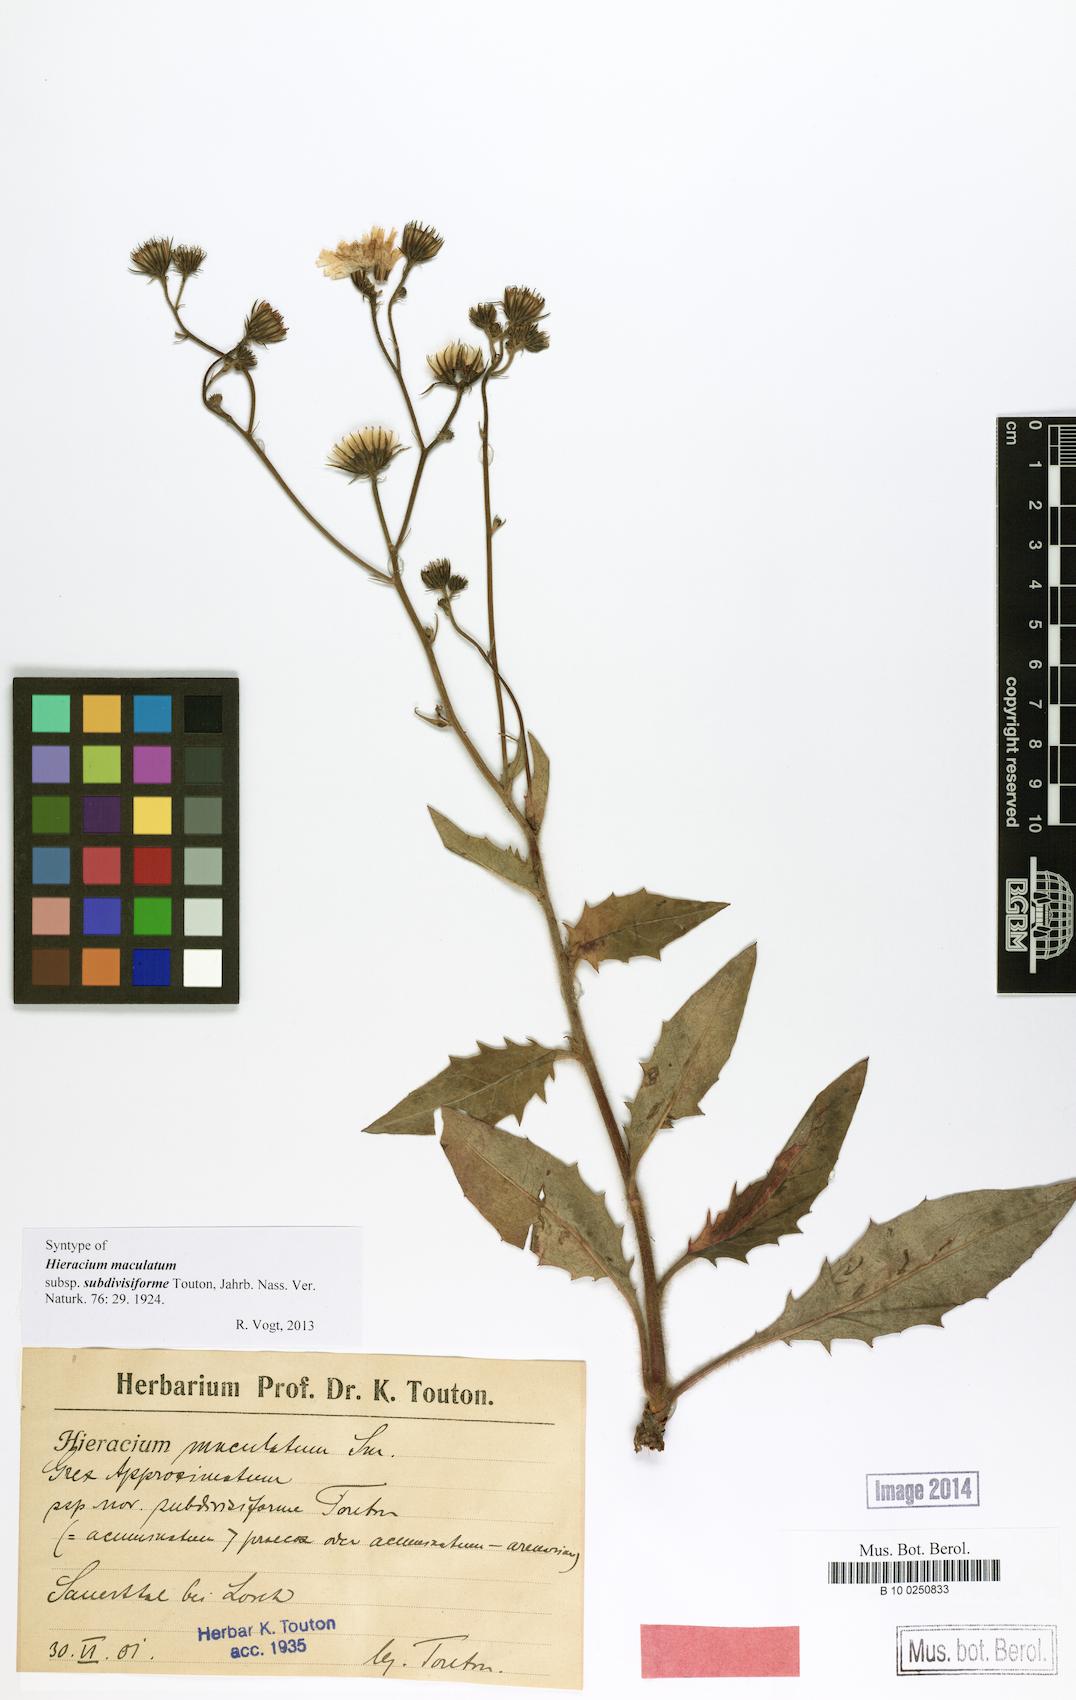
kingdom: Plantae
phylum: Tracheophyta
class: Magnoliopsida
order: Asterales
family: Asteraceae
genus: Hieracium
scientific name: Hieracium maculatum
